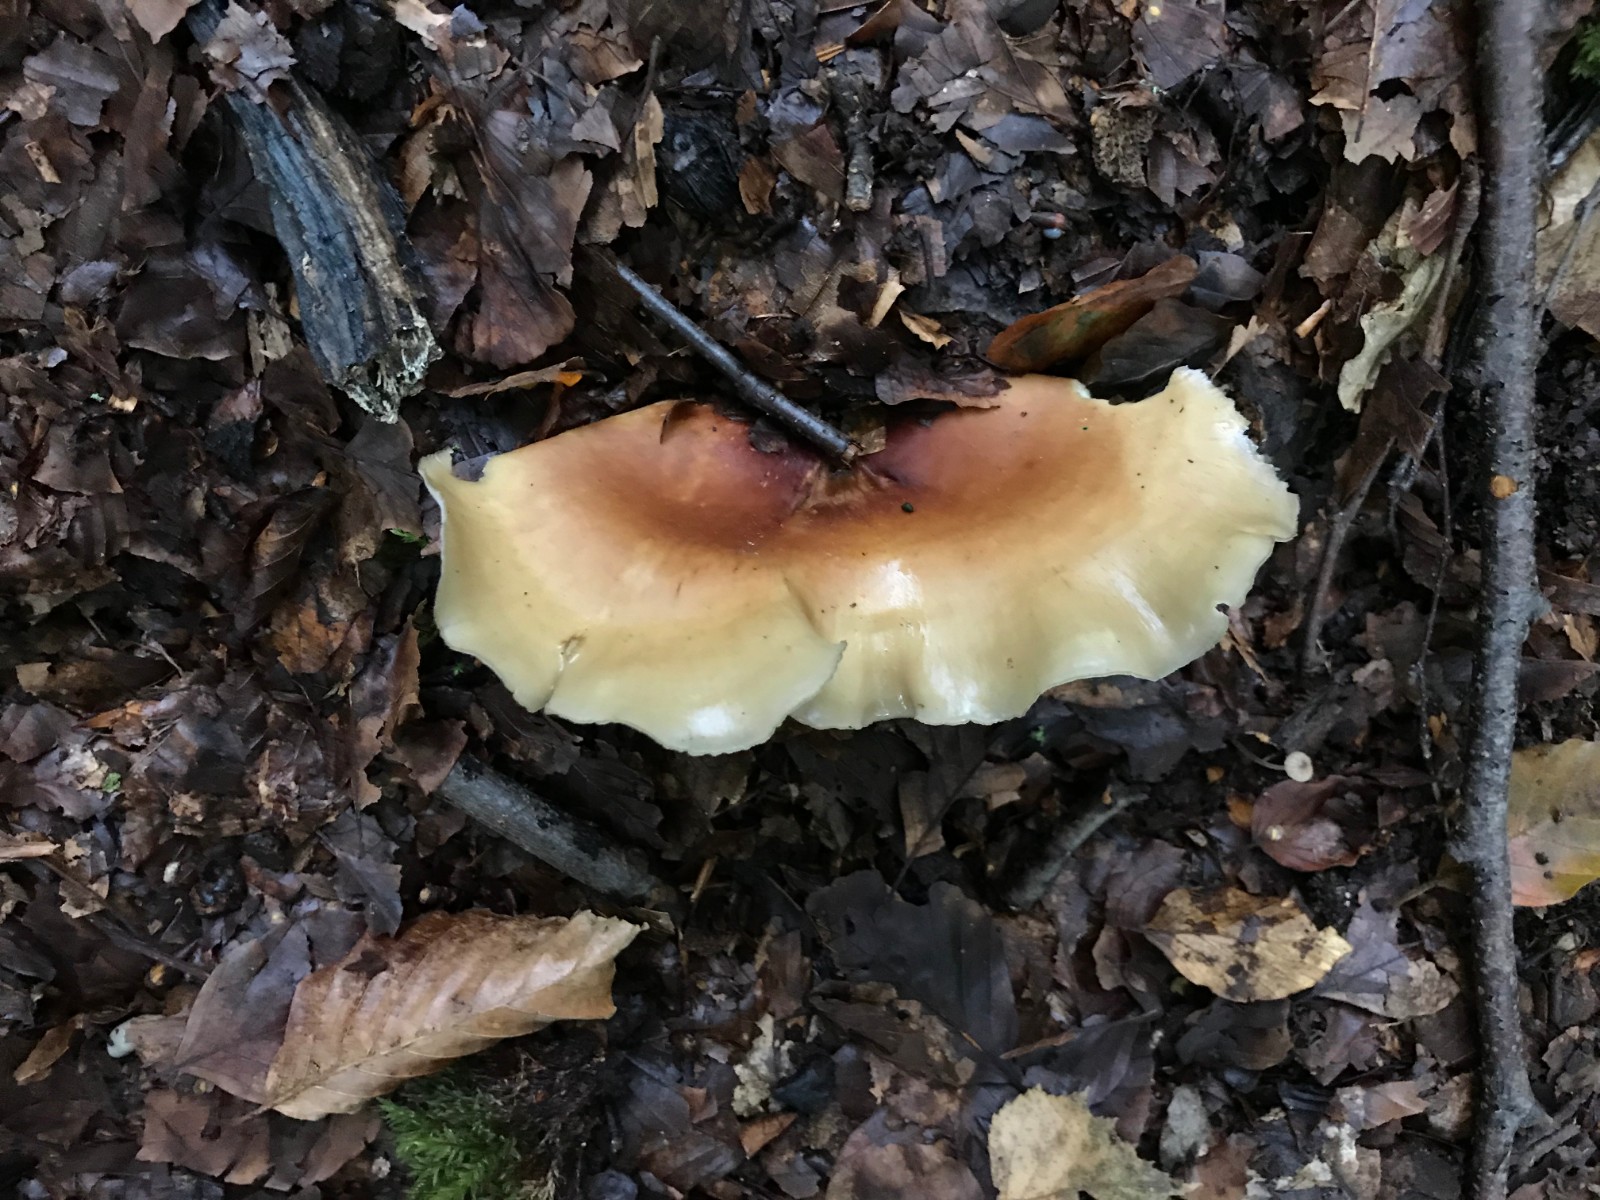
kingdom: Fungi
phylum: Basidiomycota
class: Agaricomycetes
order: Polyporales
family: Polyporaceae
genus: Picipes
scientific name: Picipes badius
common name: kastaniebrun stilkporesvamp
